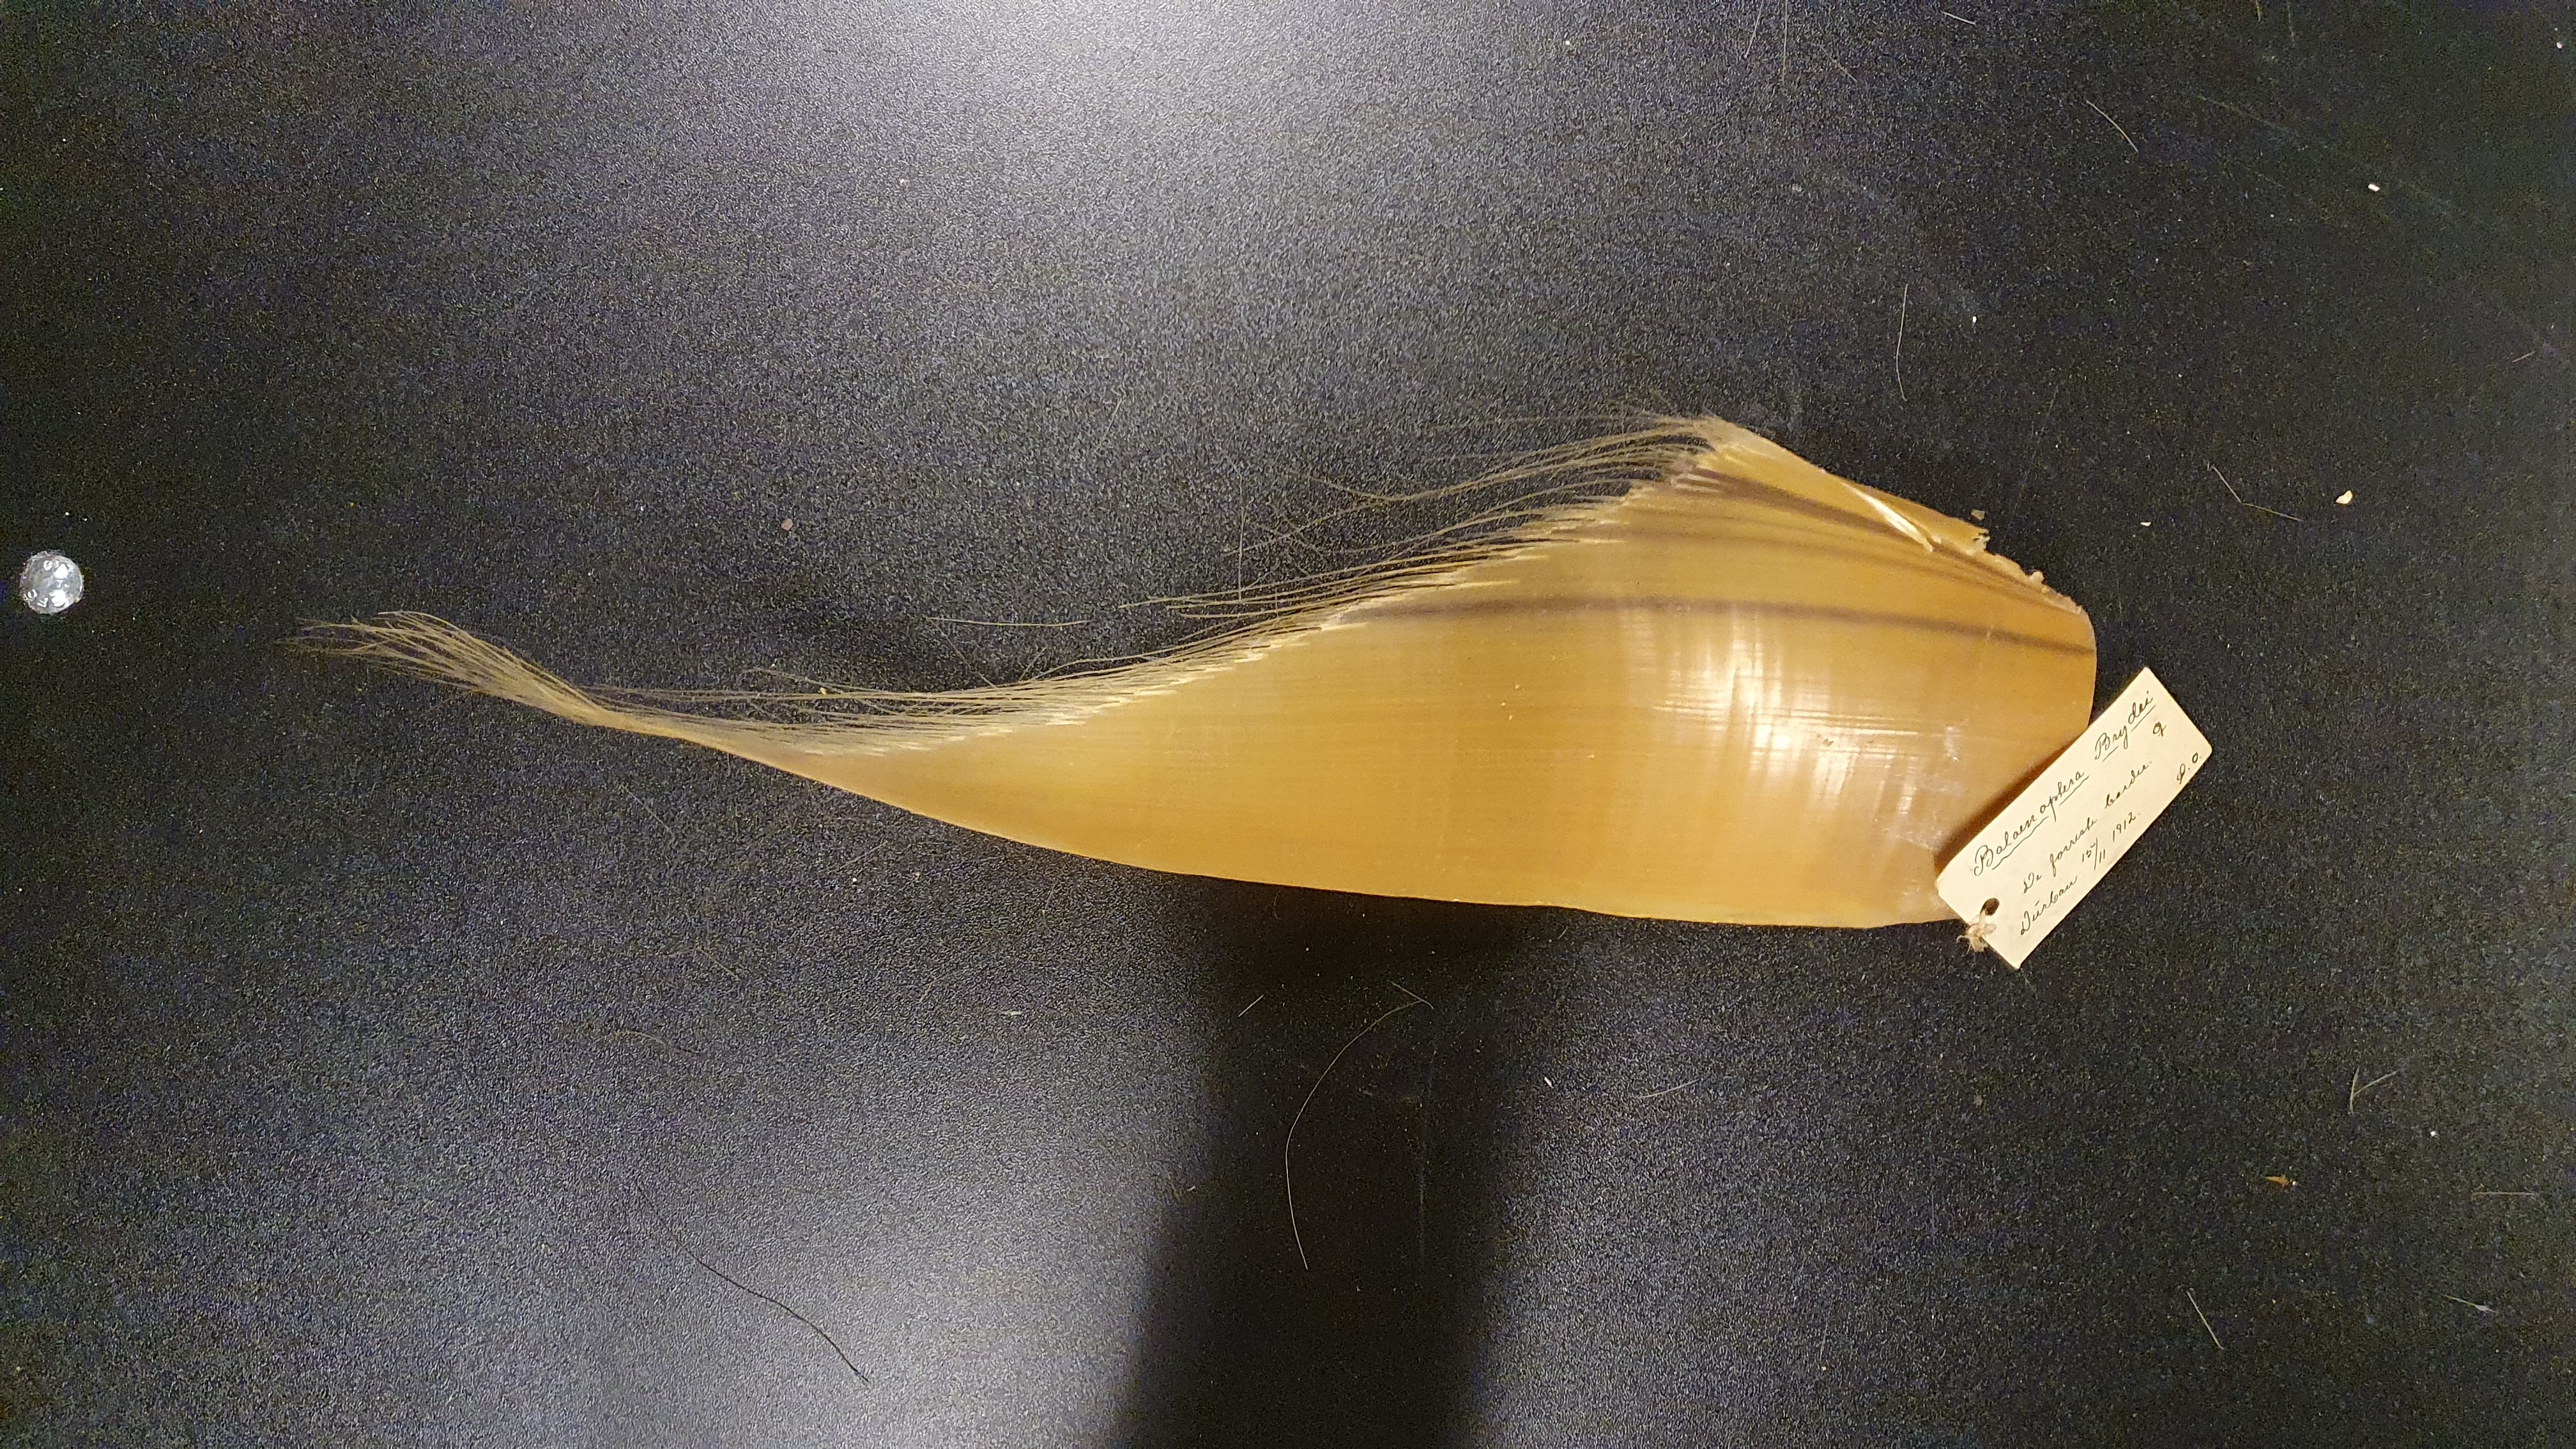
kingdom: Animalia
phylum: Chordata
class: Mammalia
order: Cetacea
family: Balaenopteridae
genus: Balaenoptera
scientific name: Balaenoptera edeni
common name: Bryde's whale
